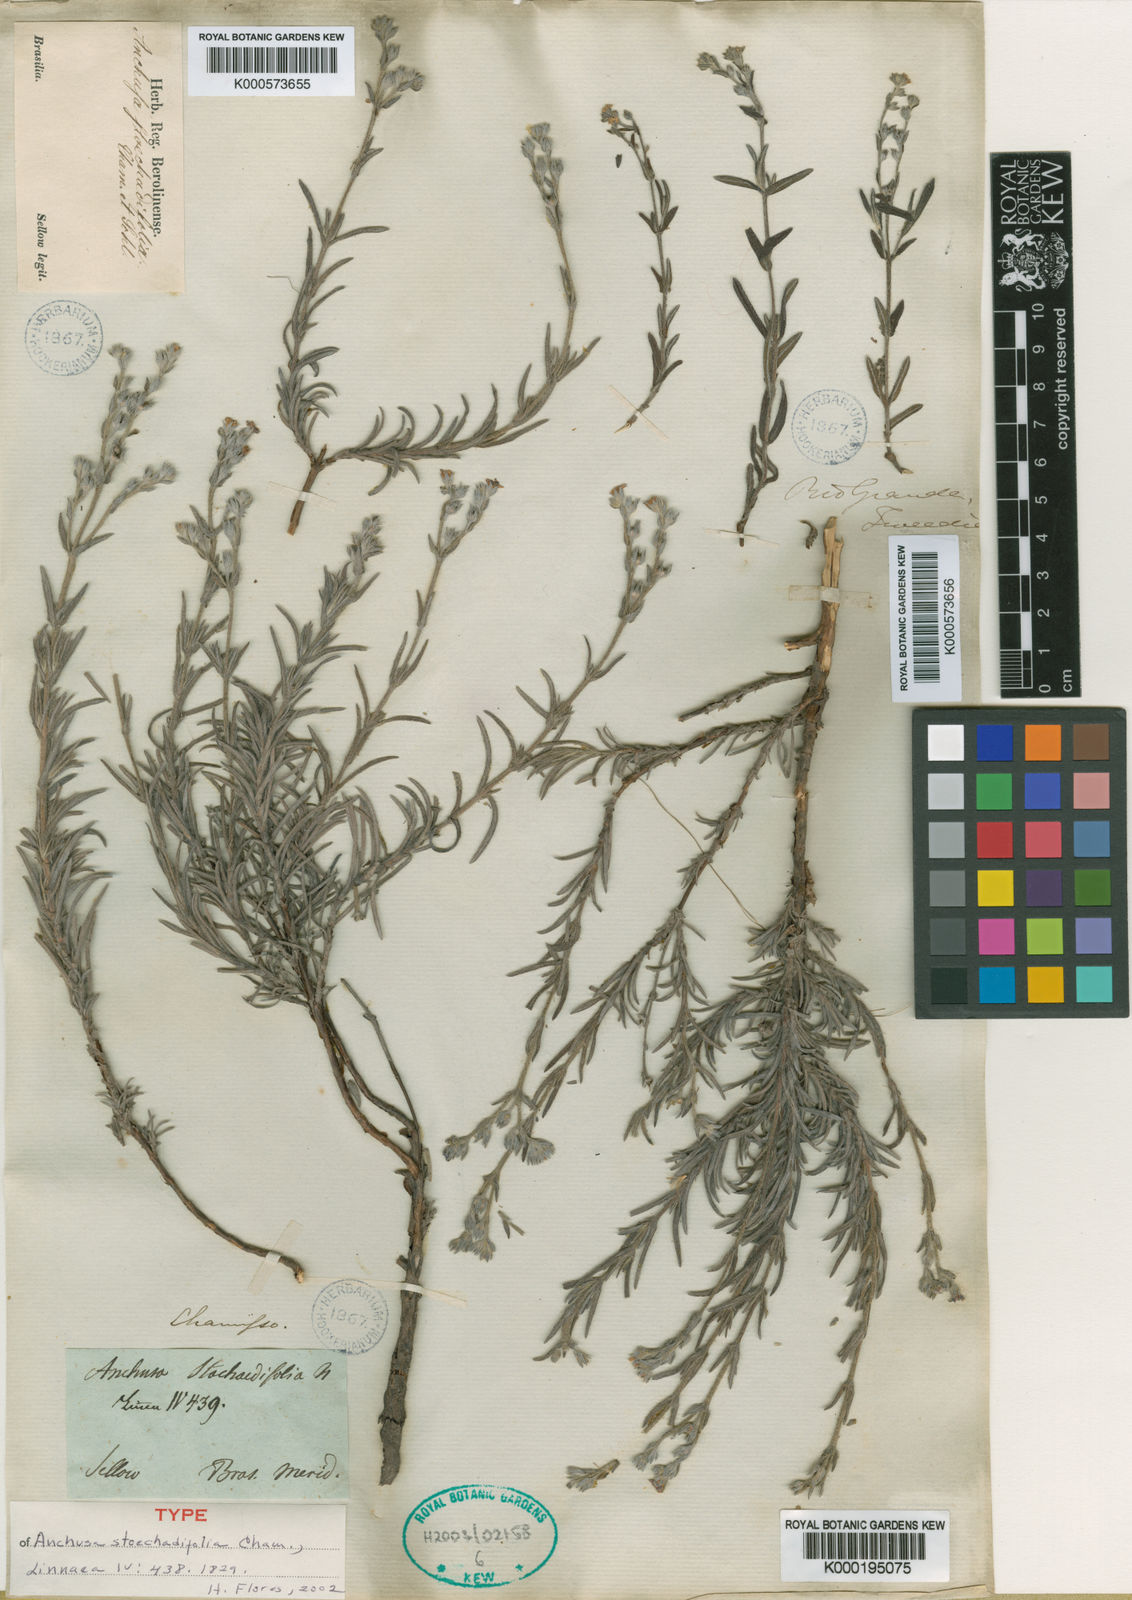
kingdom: Plantae
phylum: Tracheophyta
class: Magnoliopsida
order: Boraginales
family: Boraginaceae
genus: Antiphytum
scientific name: Antiphytum
